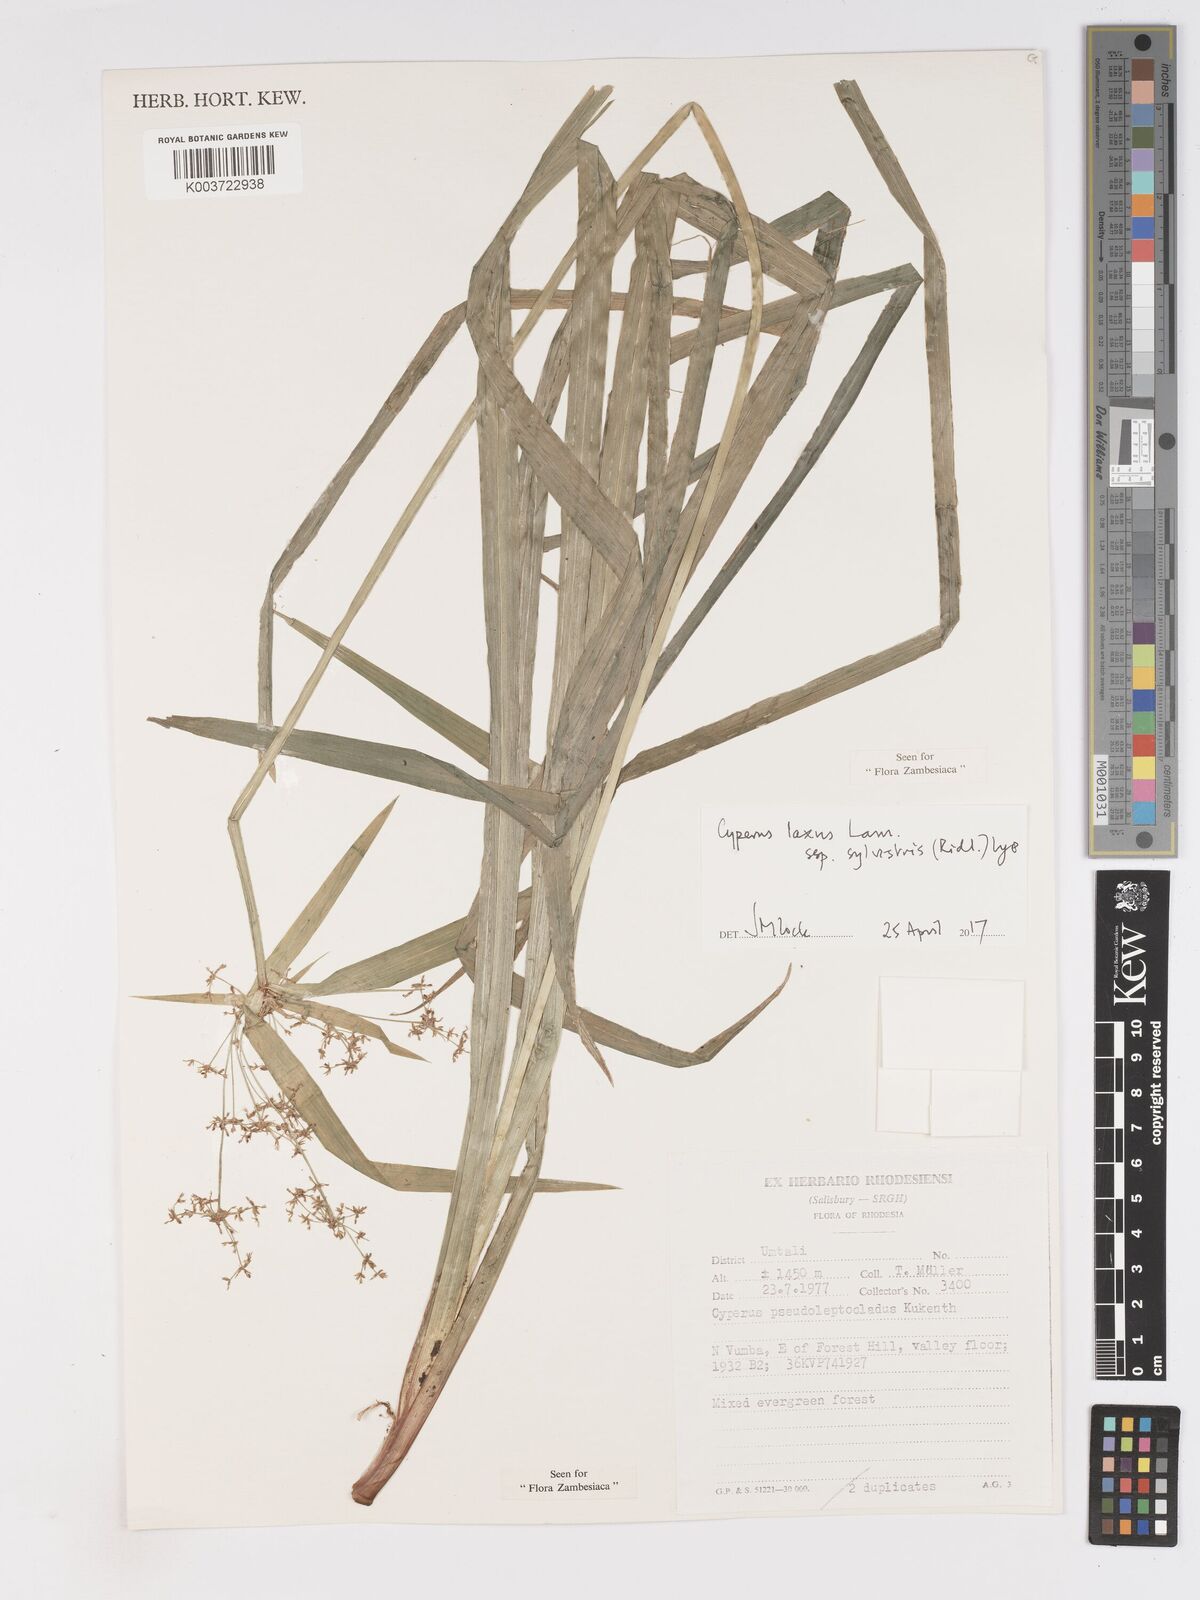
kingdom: Plantae
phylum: Tracheophyta
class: Liliopsida
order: Poales
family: Cyperaceae
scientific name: Cyperaceae
